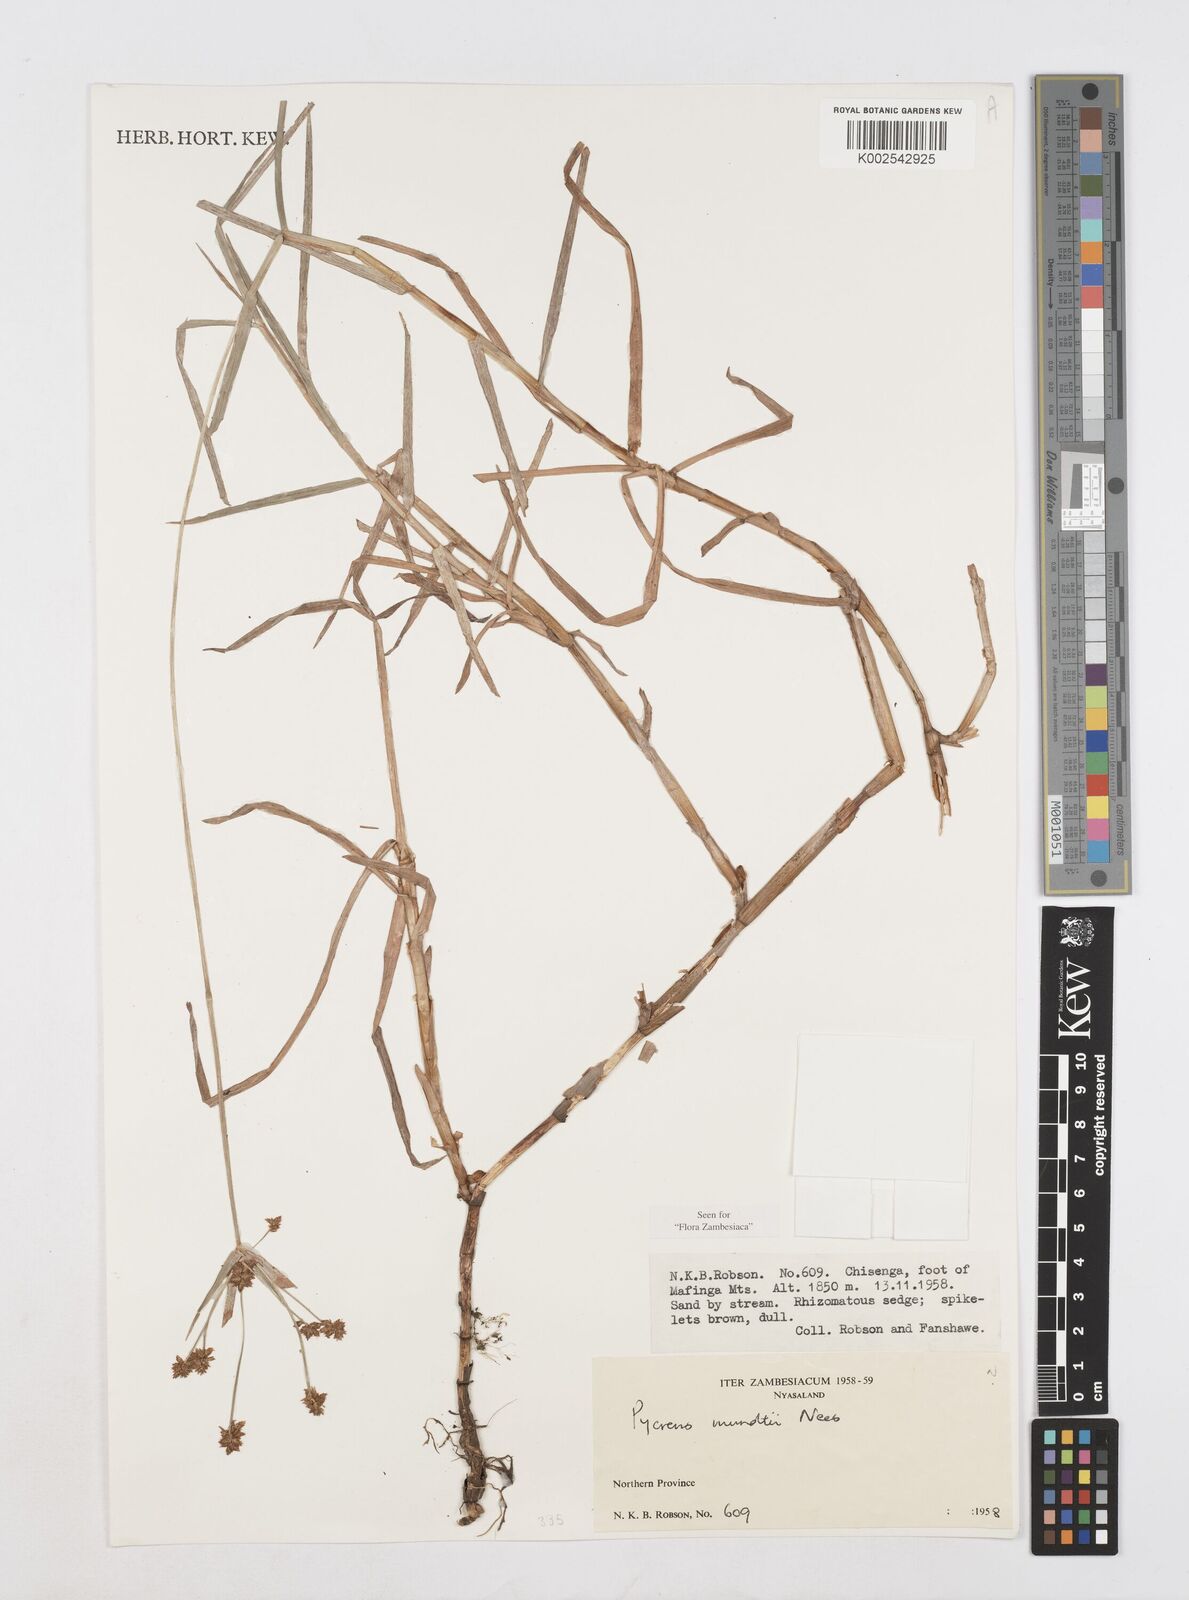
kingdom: Plantae
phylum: Tracheophyta
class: Liliopsida
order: Poales
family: Cyperaceae
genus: Cyperus
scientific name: Cyperus mundii
